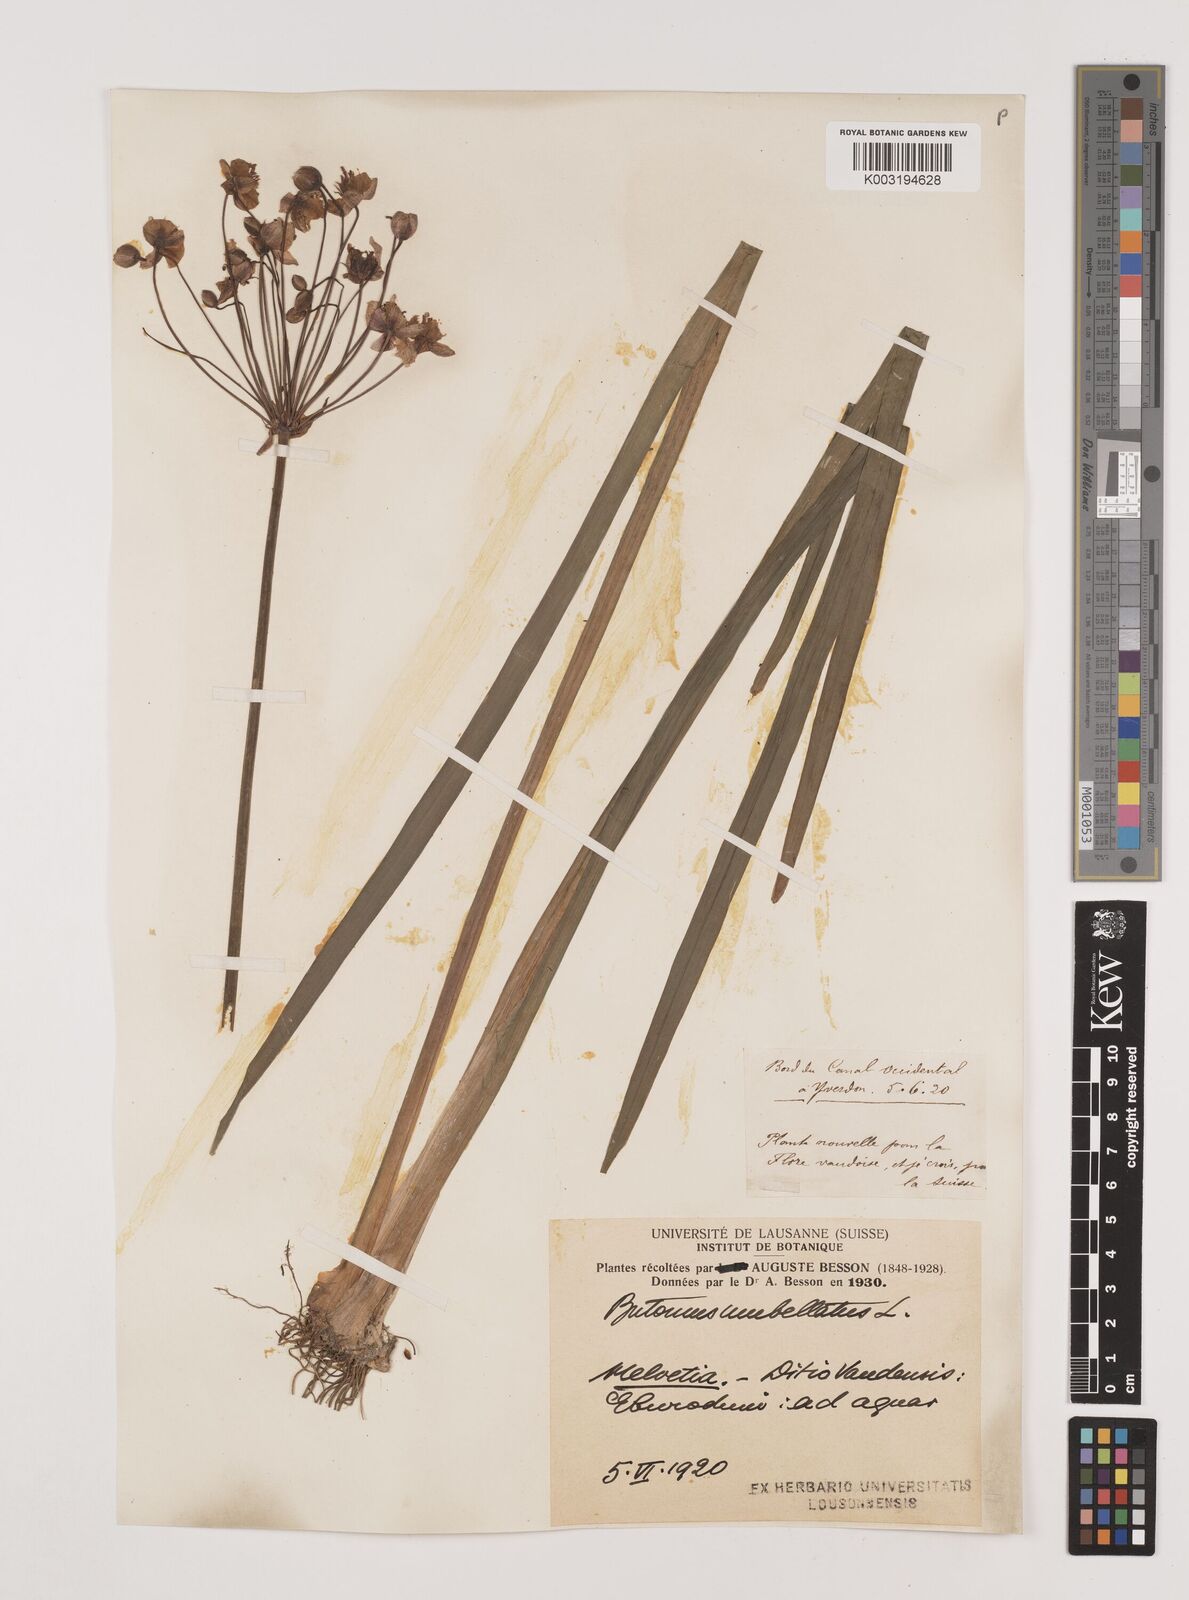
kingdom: Plantae
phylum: Tracheophyta
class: Liliopsida
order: Alismatales
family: Butomaceae
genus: Butomus
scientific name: Butomus umbellatus
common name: Flowering-rush
